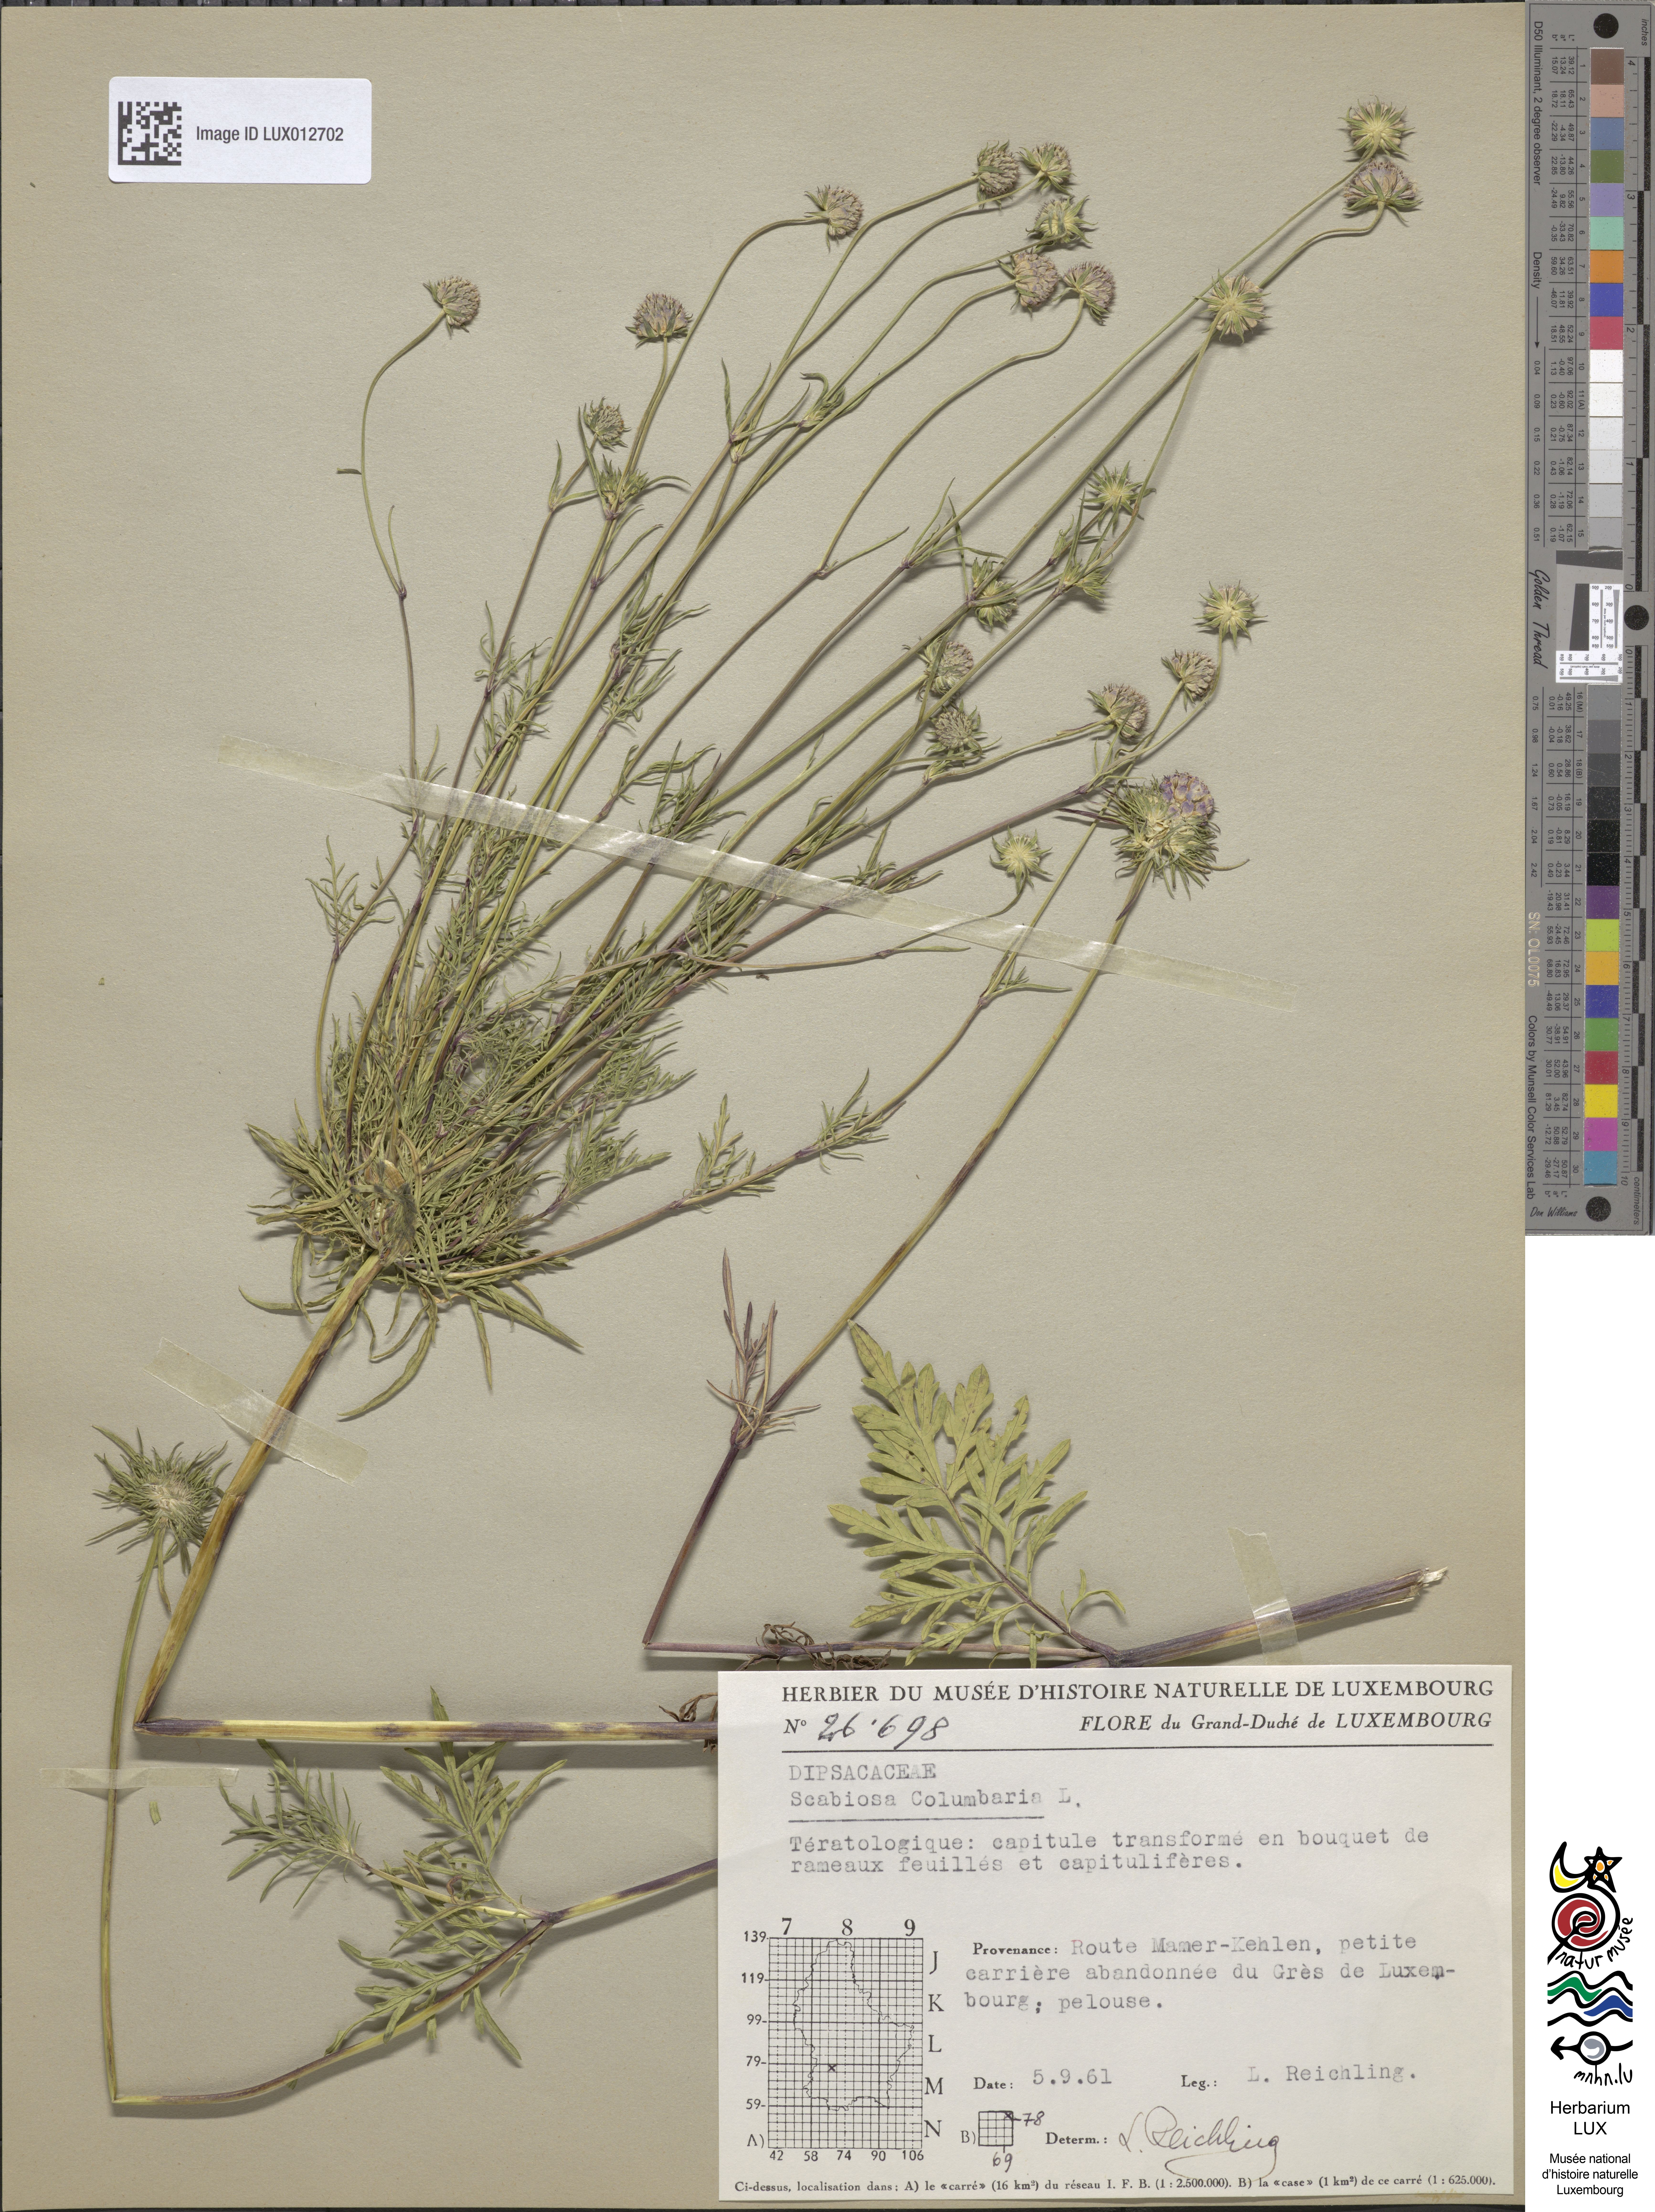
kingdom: Plantae
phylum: Tracheophyta
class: Magnoliopsida
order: Dipsacales
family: Caprifoliaceae
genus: Scabiosa
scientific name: Scabiosa columbaria
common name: Small scabious
